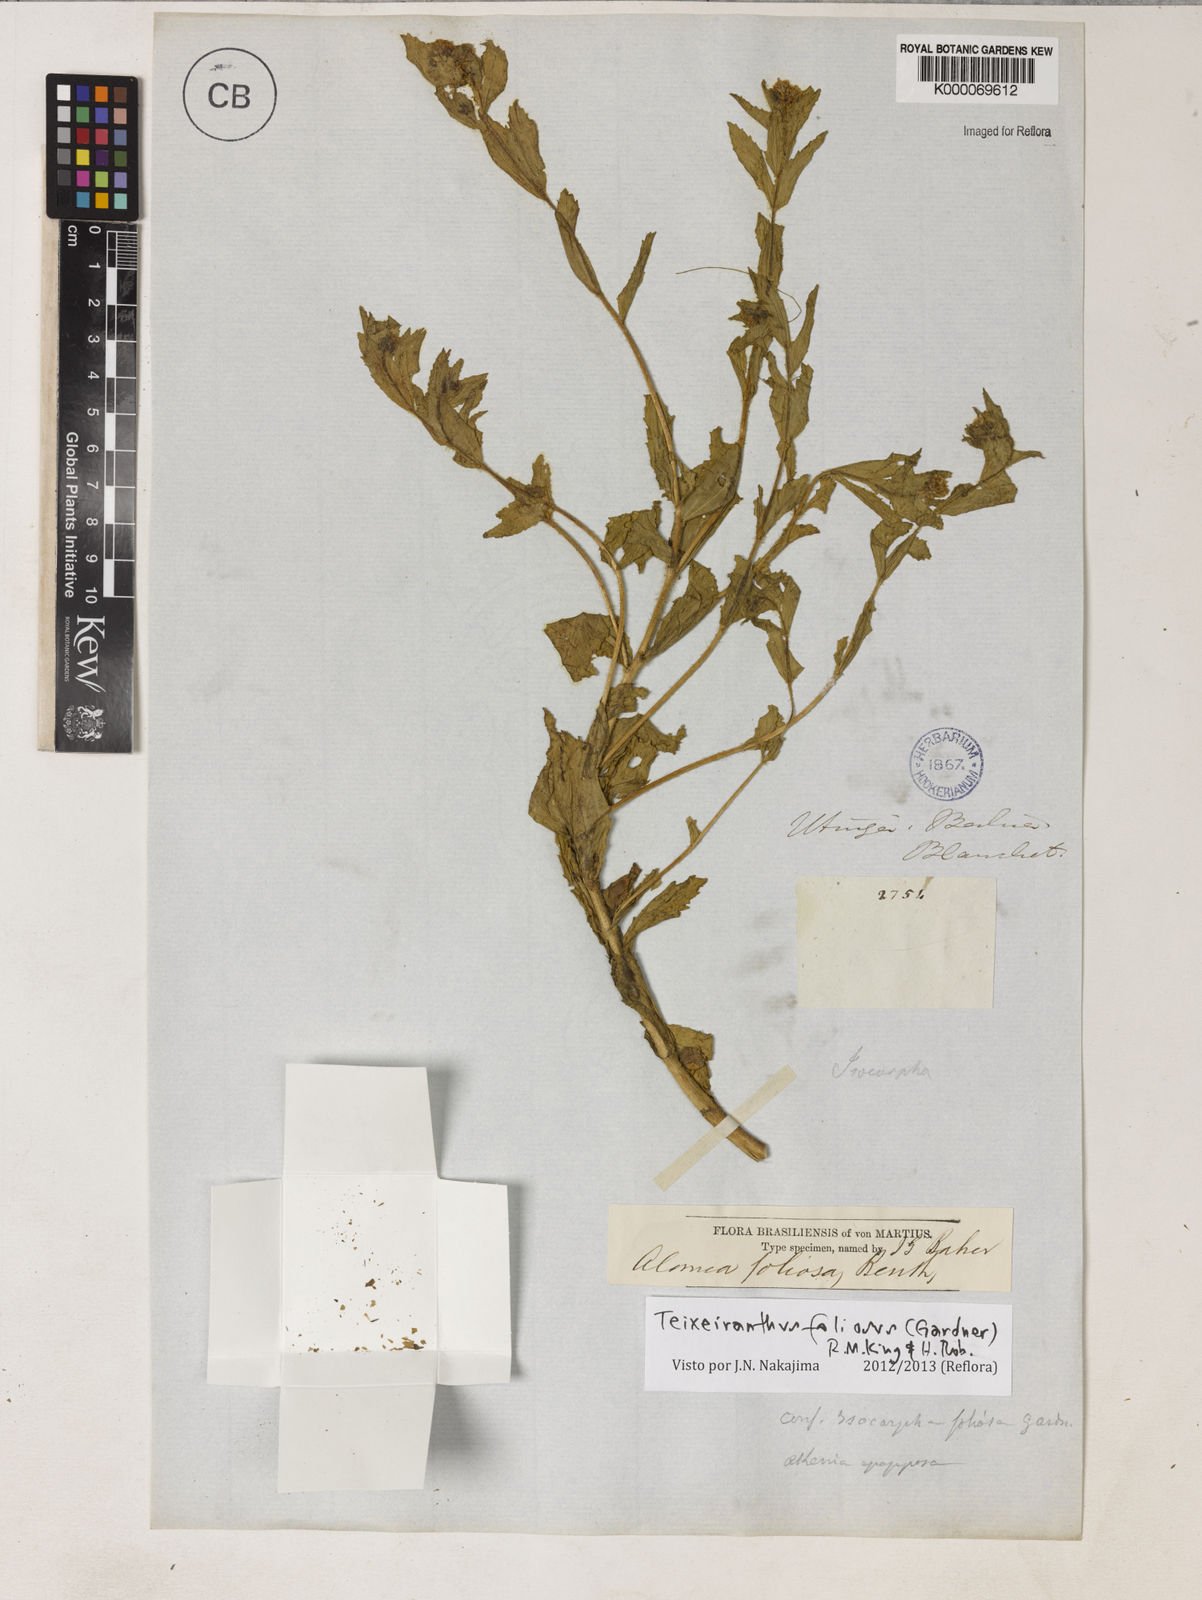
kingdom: Plantae
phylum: Tracheophyta
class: Magnoliopsida
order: Asterales
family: Asteraceae
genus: Teixeiranthus
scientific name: Teixeiranthus foliosus
